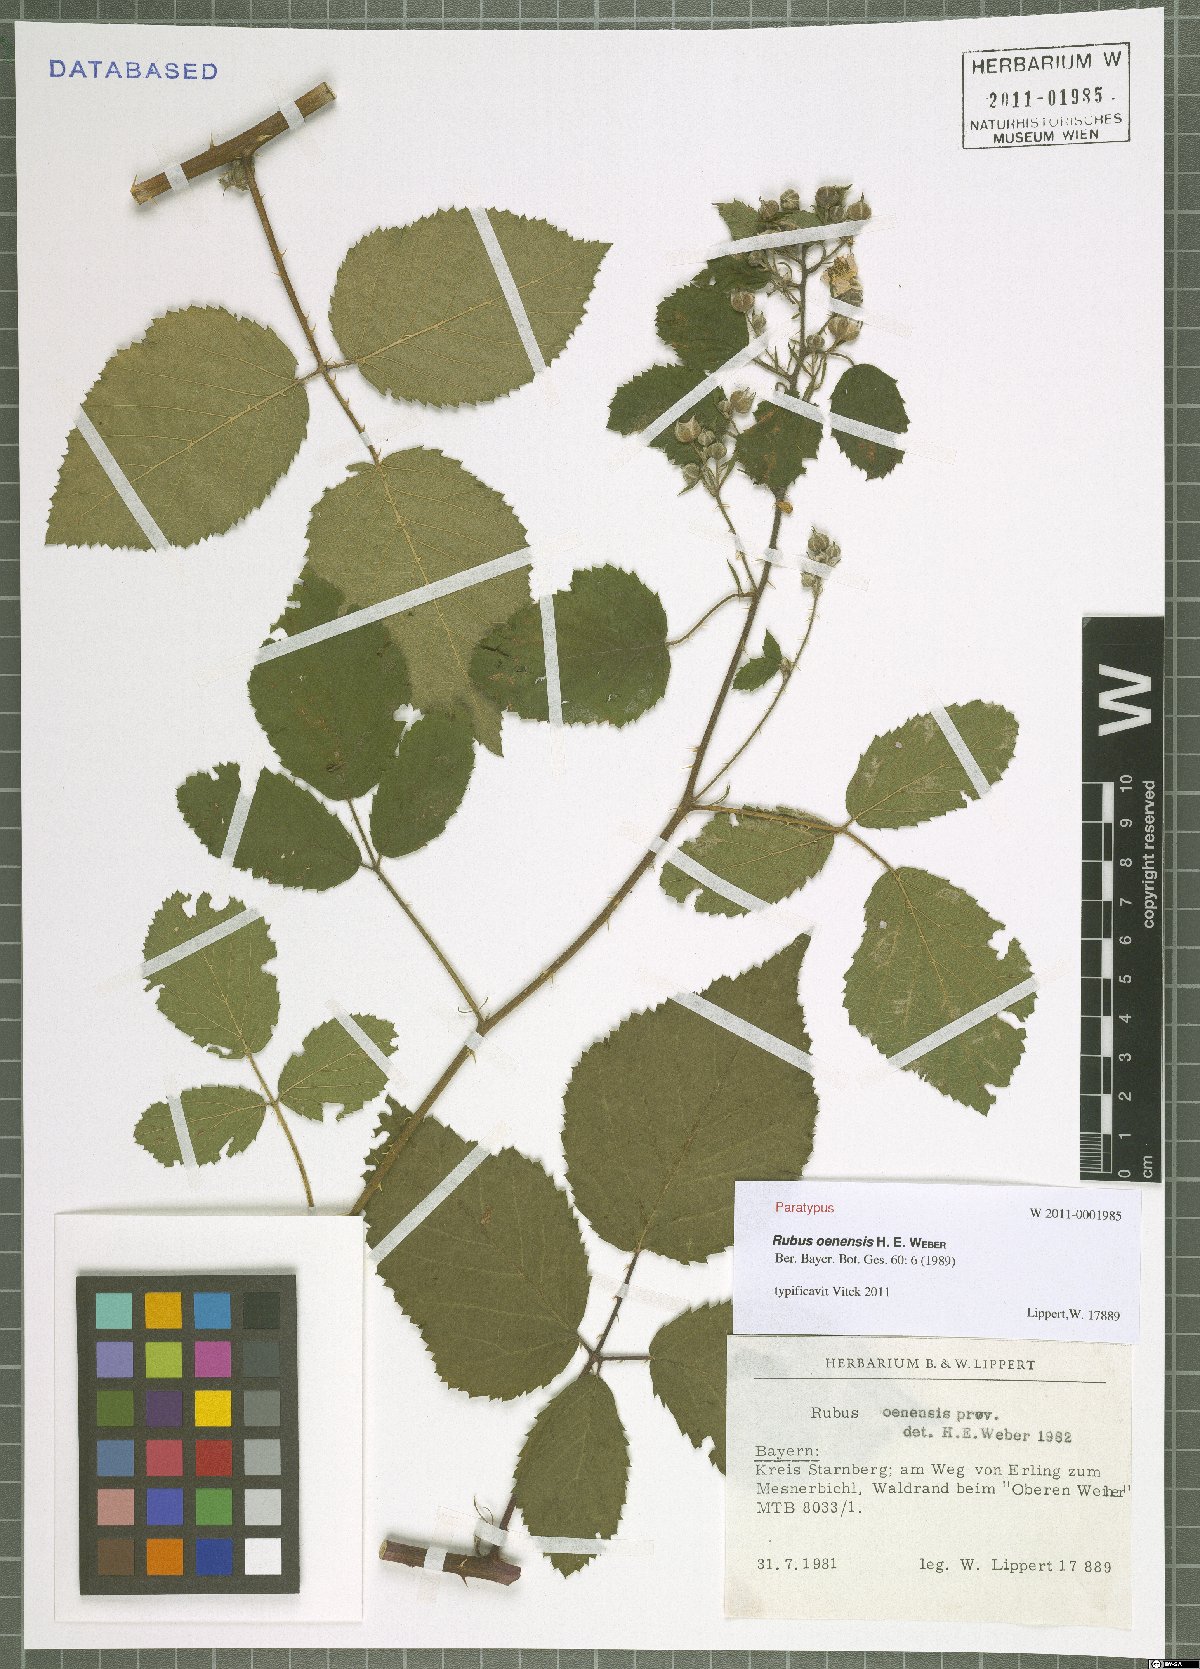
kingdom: Plantae
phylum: Tracheophyta
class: Magnoliopsida
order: Rosales
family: Rosaceae
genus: Rubus
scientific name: Rubus oenensis
